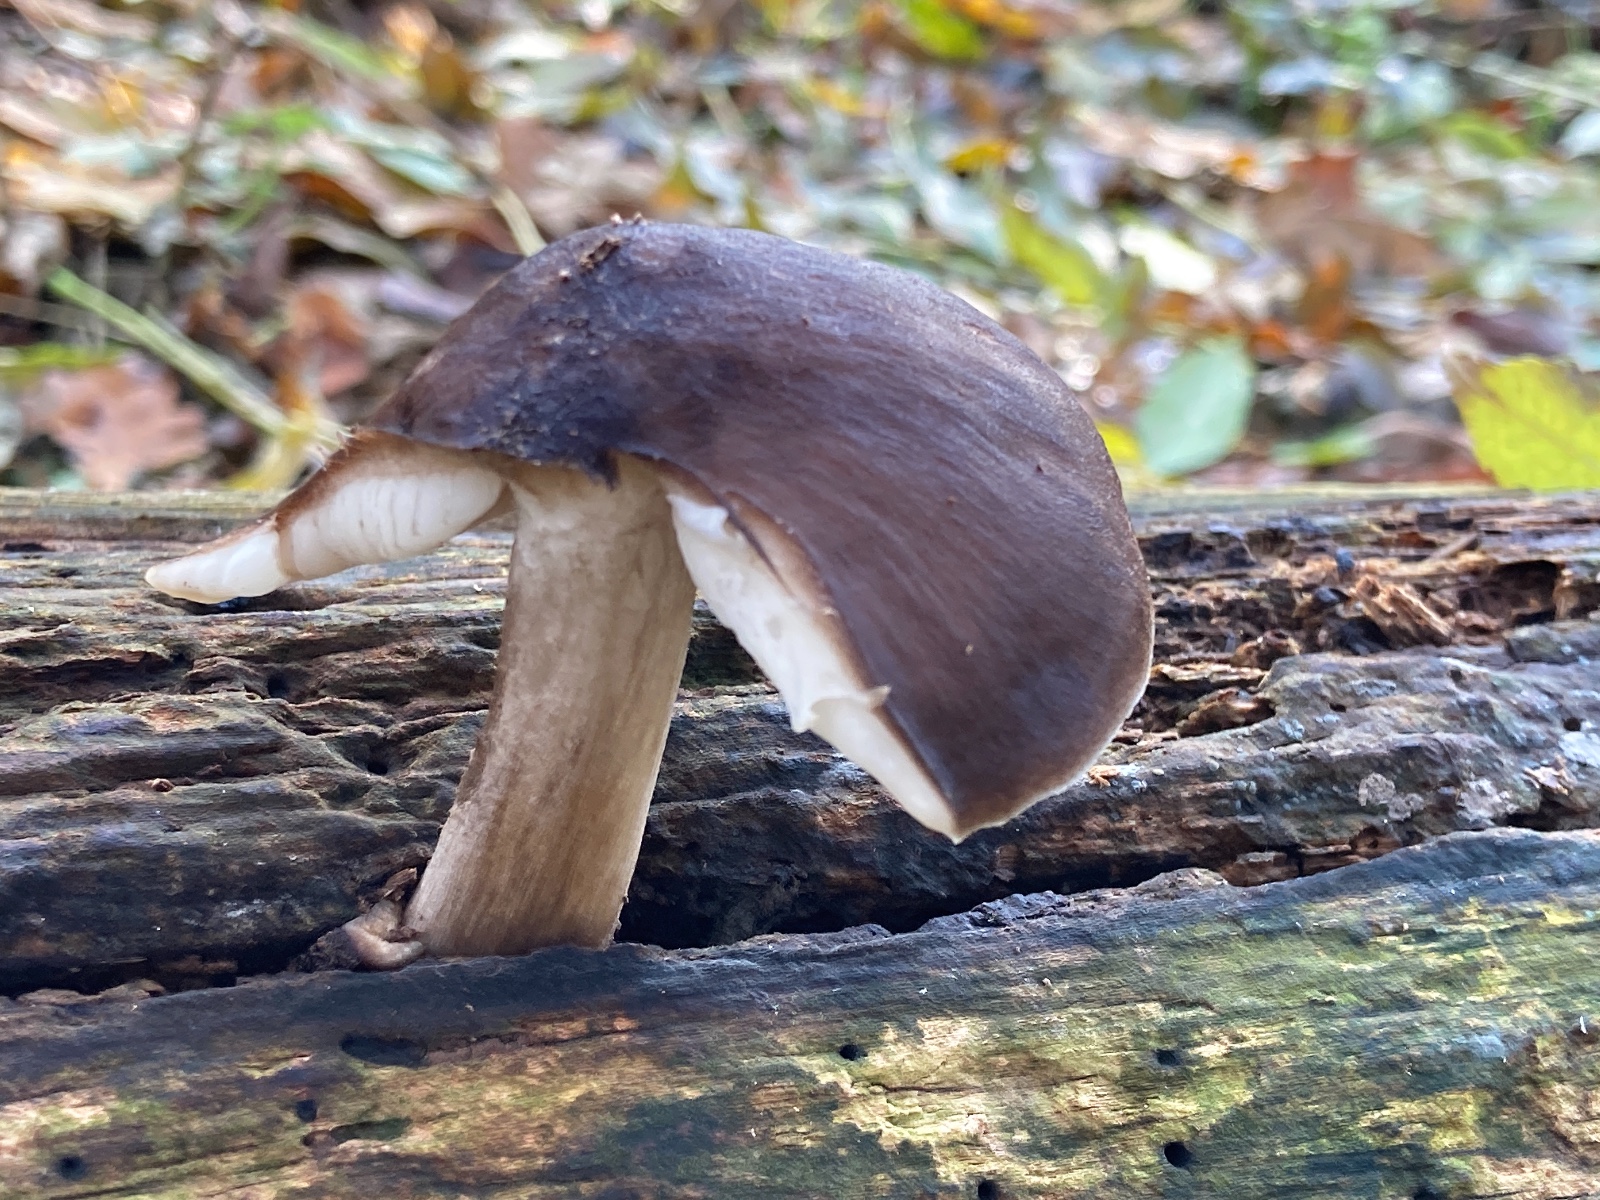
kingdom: Fungi
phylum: Basidiomycota
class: Agaricomycetes
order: Agaricales
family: Pluteaceae
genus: Pluteus
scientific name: Pluteus cervinus
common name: sodfarvet skærmhat
